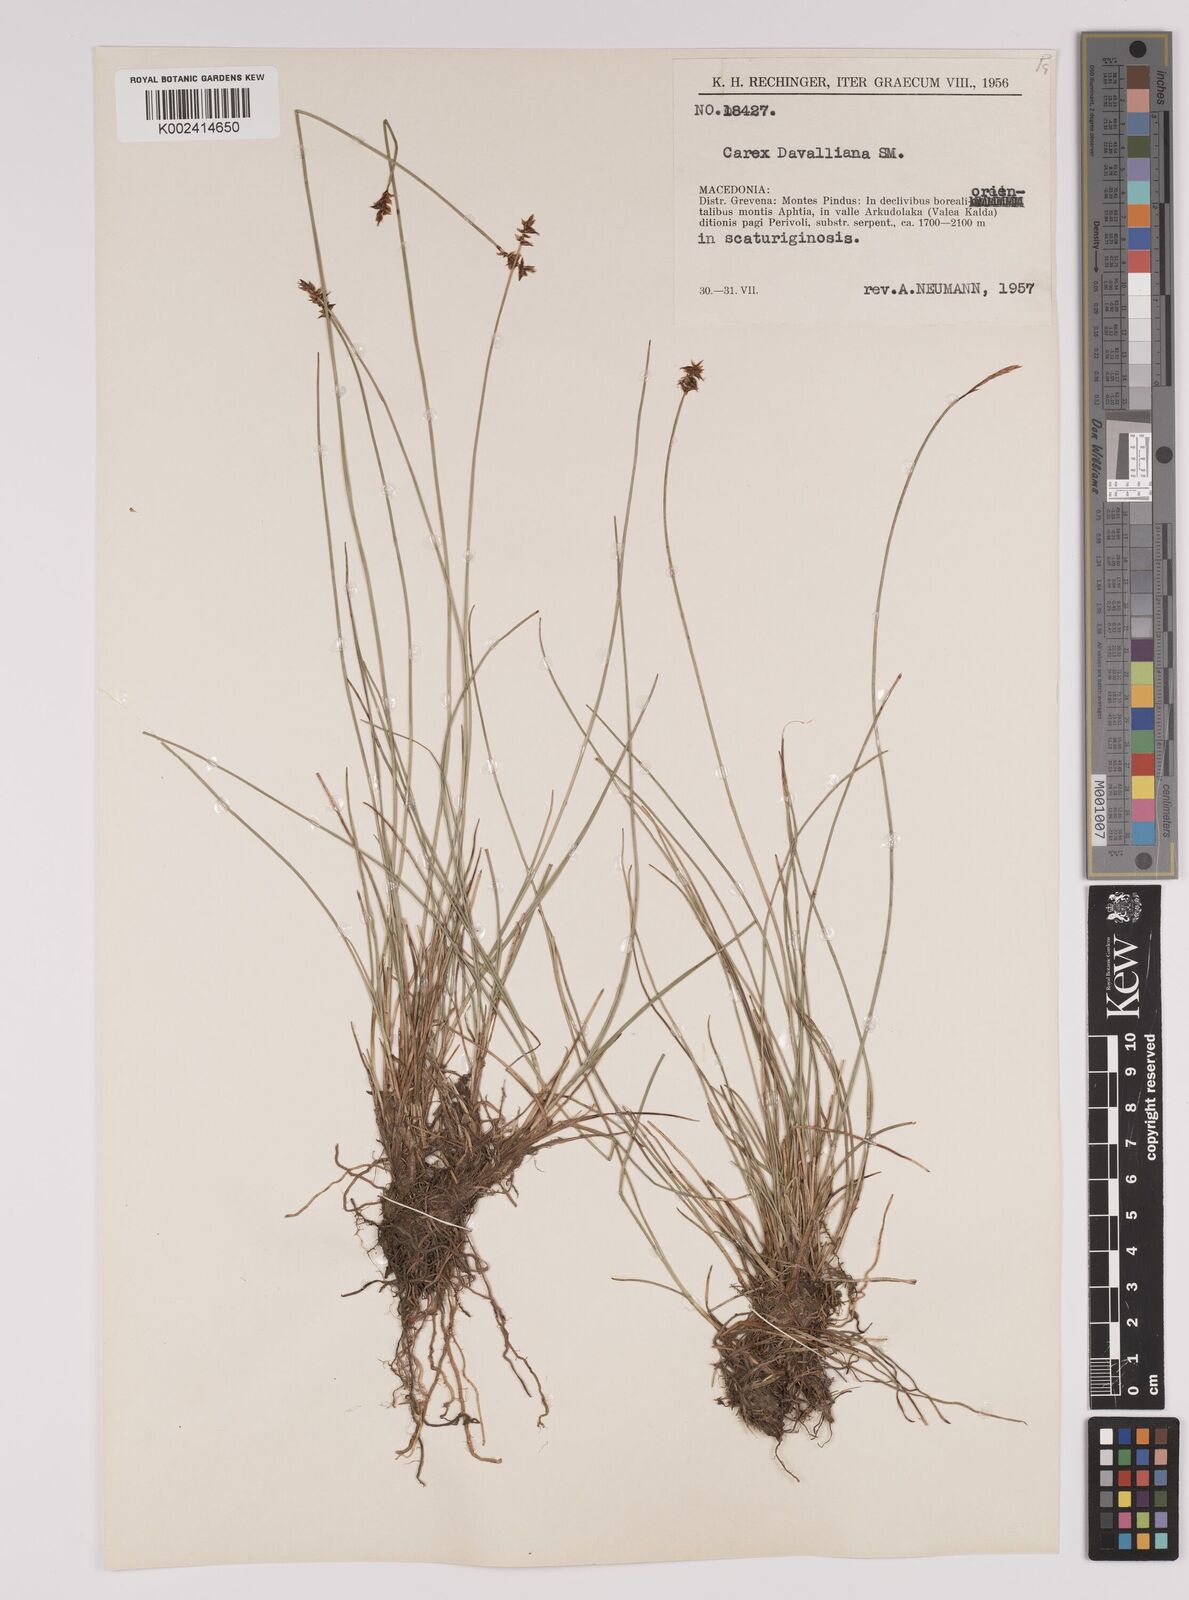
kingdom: Plantae
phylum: Tracheophyta
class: Liliopsida
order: Poales
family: Cyperaceae
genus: Carex
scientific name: Carex davalliana
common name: Davall's sedge
